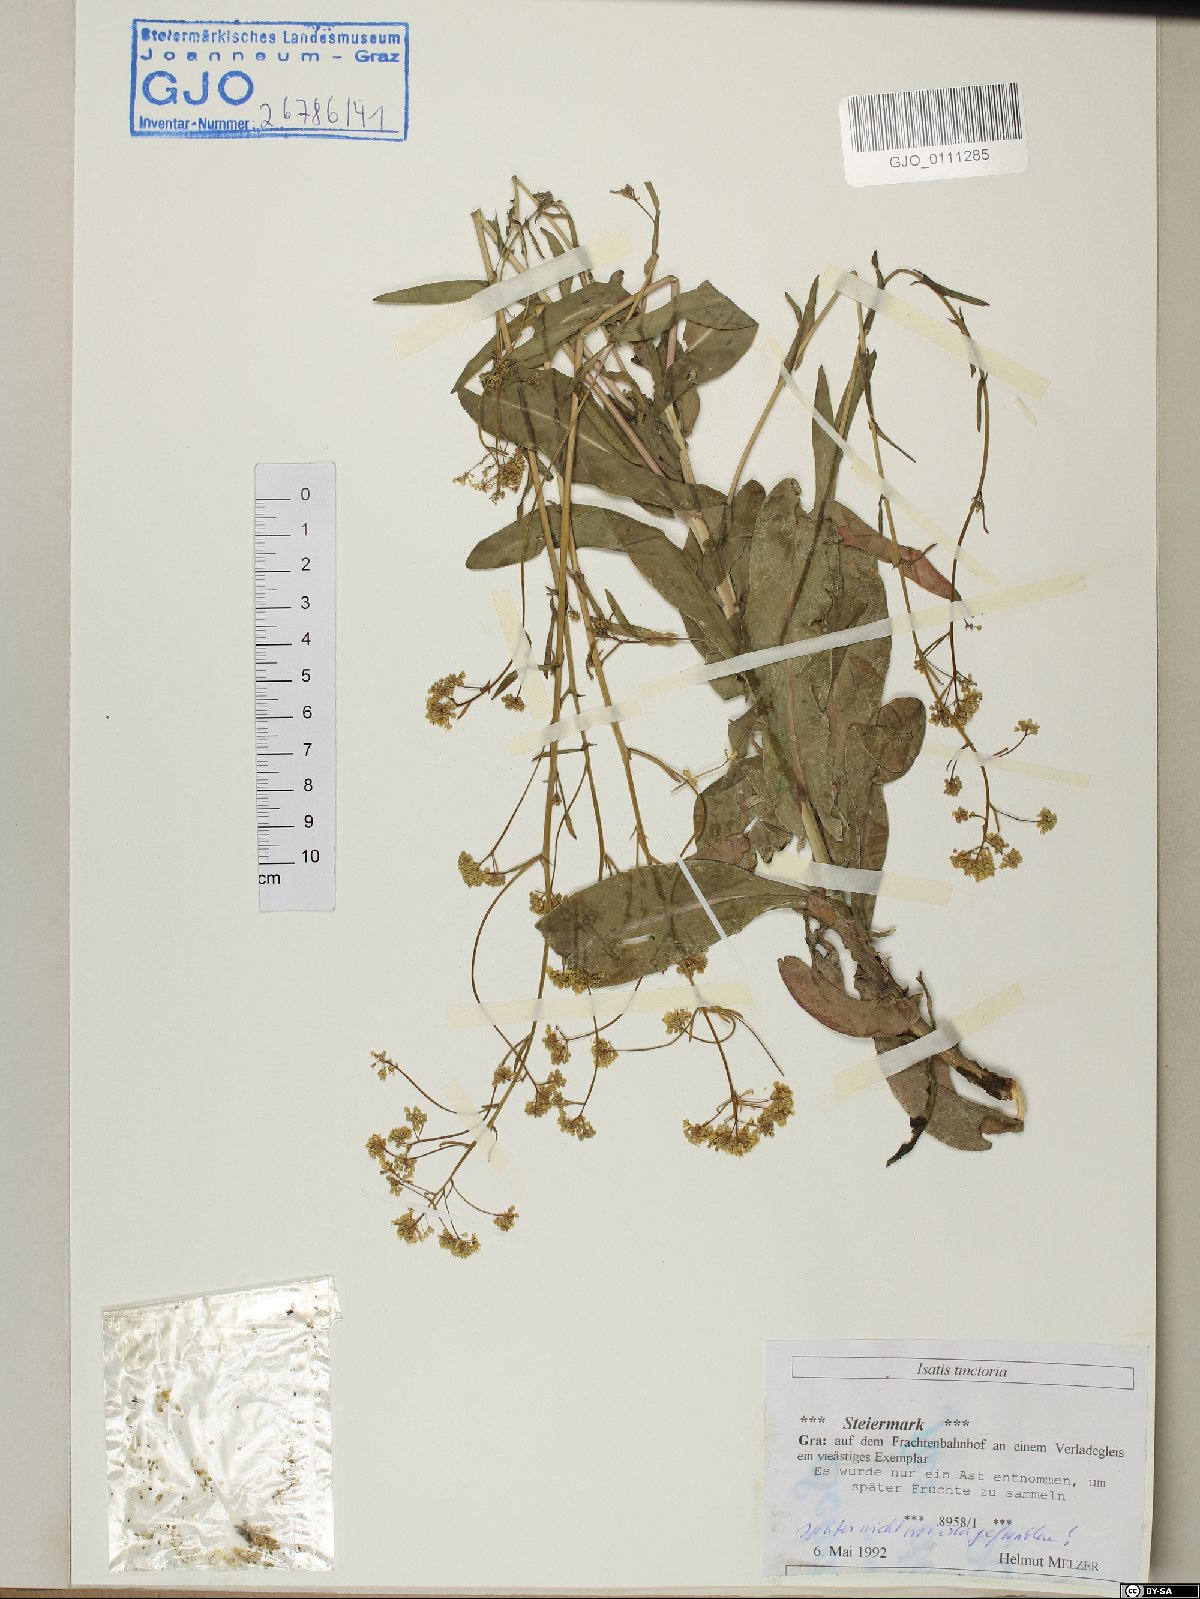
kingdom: Plantae
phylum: Tracheophyta
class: Magnoliopsida
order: Brassicales
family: Brassicaceae
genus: Isatis
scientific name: Isatis tinctoria
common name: Woad
